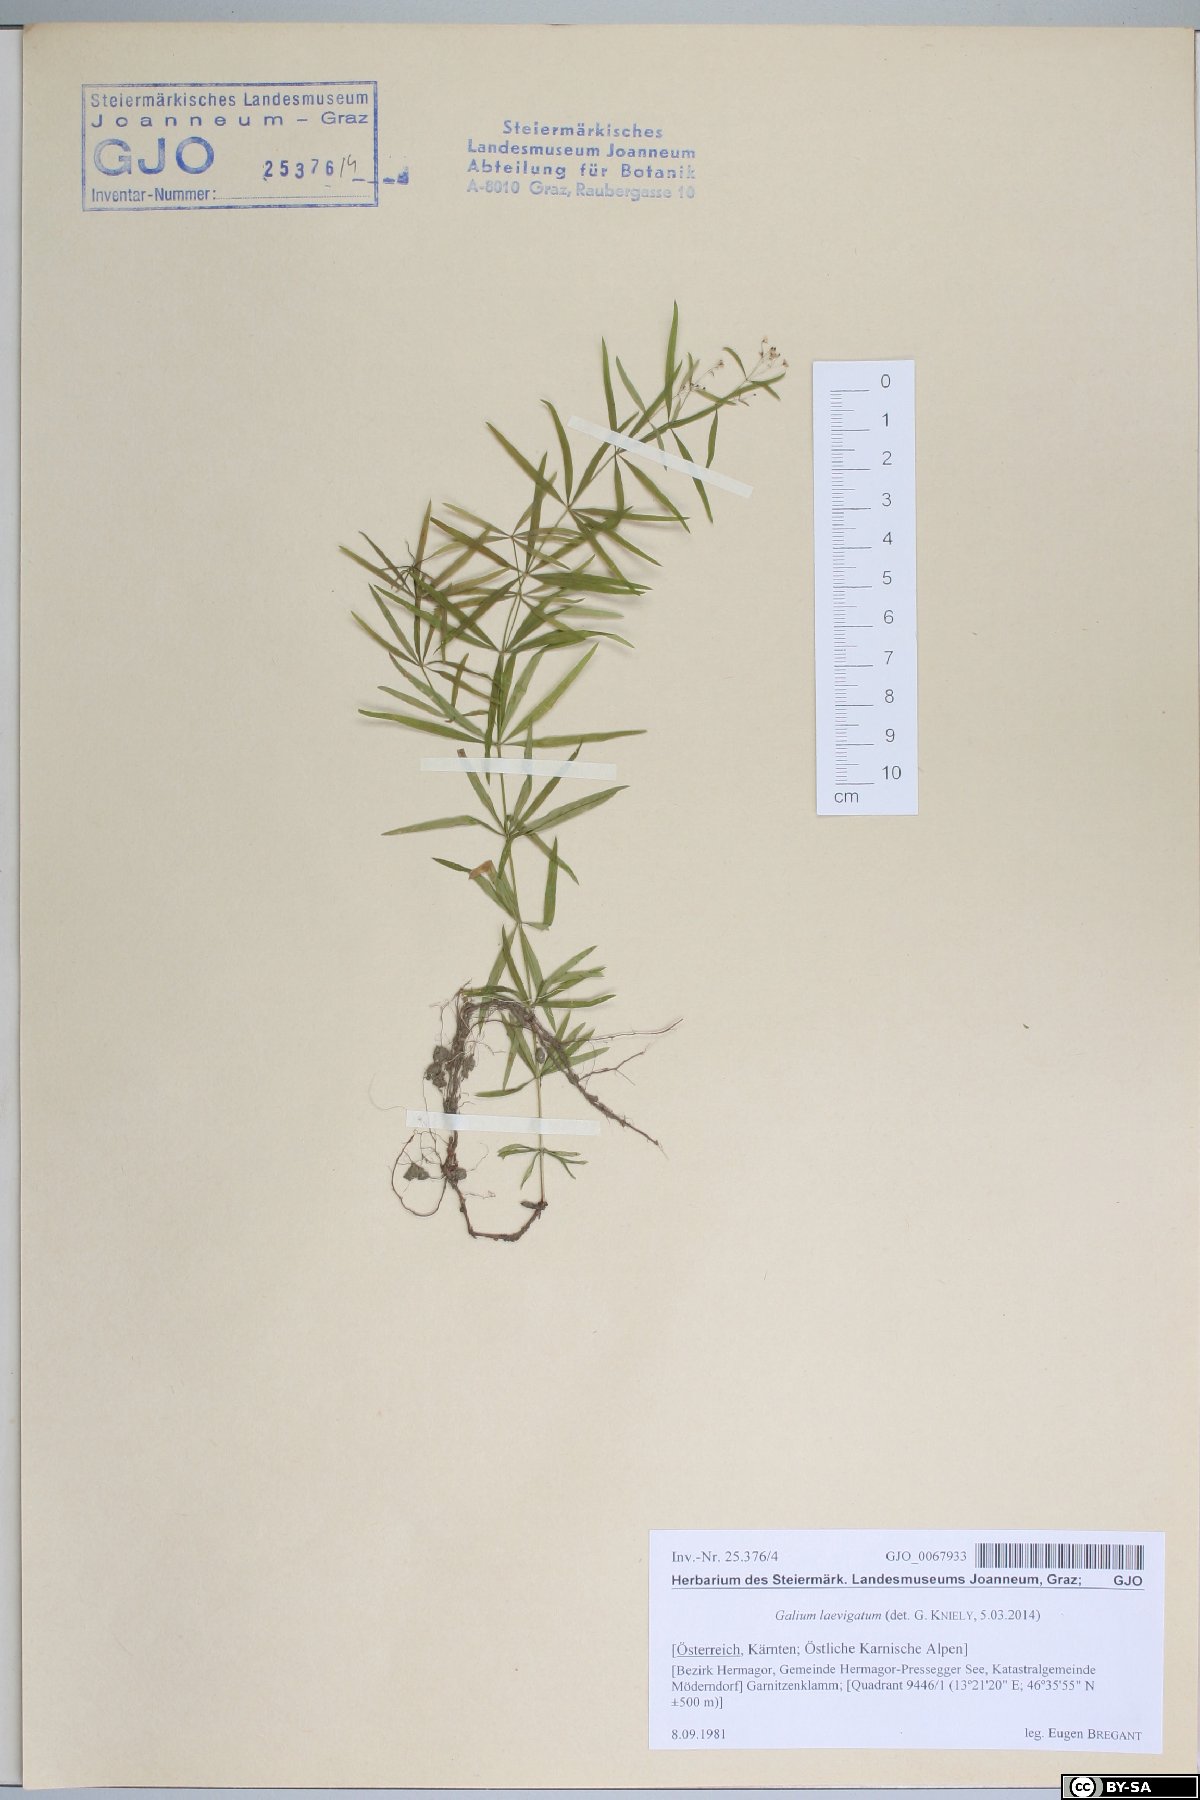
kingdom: Plantae
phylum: Tracheophyta
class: Magnoliopsida
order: Gentianales
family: Rubiaceae
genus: Galium
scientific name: Galium laevigatum
